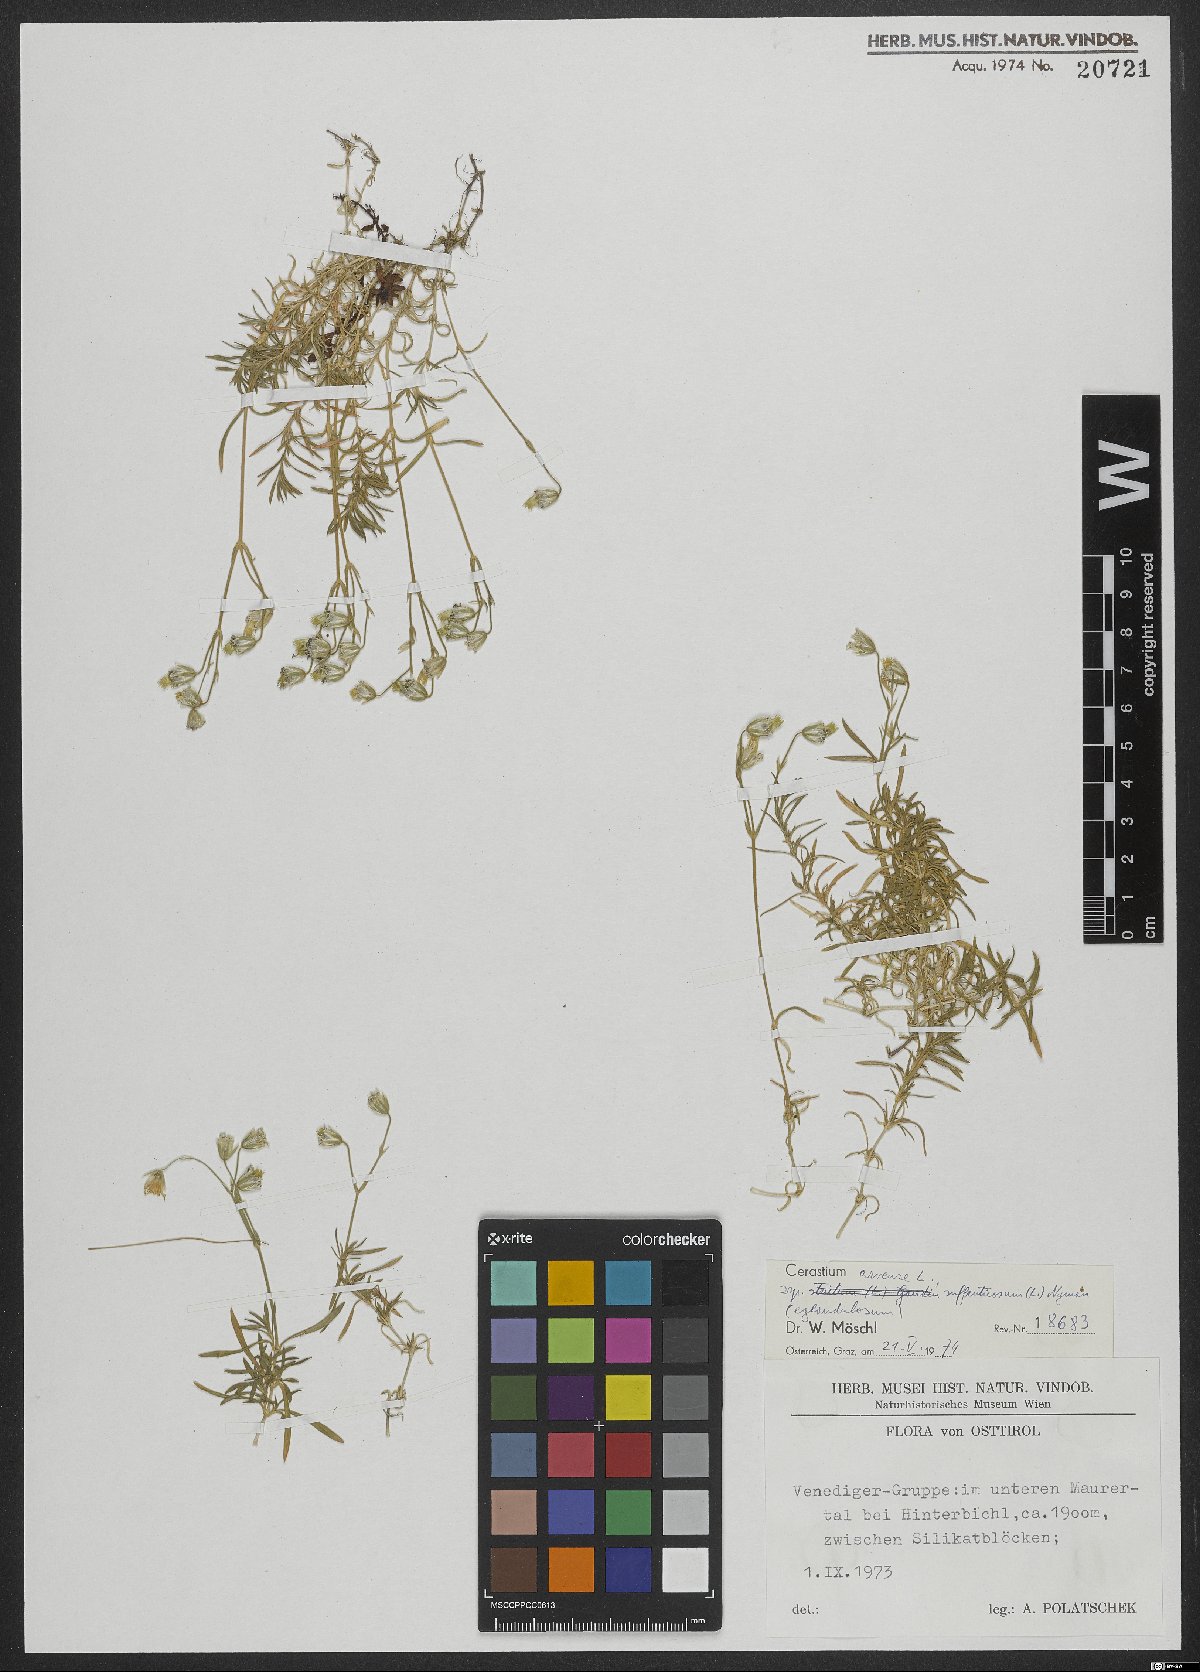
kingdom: Plantae
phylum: Tracheophyta
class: Magnoliopsida
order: Caryophyllales
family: Caryophyllaceae
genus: Cerastium
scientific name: Cerastium arvense
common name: Field mouse-ear
